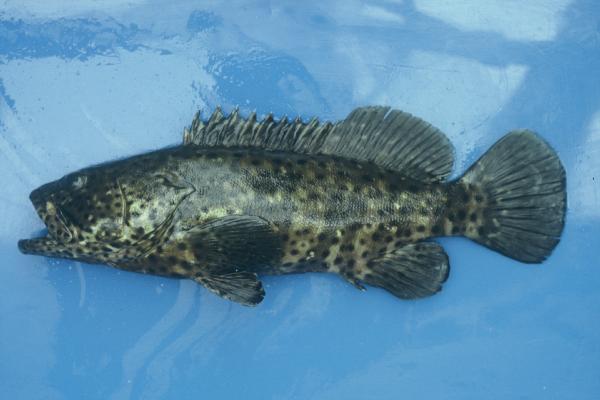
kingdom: Animalia
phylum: Chordata
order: Perciformes
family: Serranidae
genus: Epinephelus
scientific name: Epinephelus malabaricus
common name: Malabar grouper
